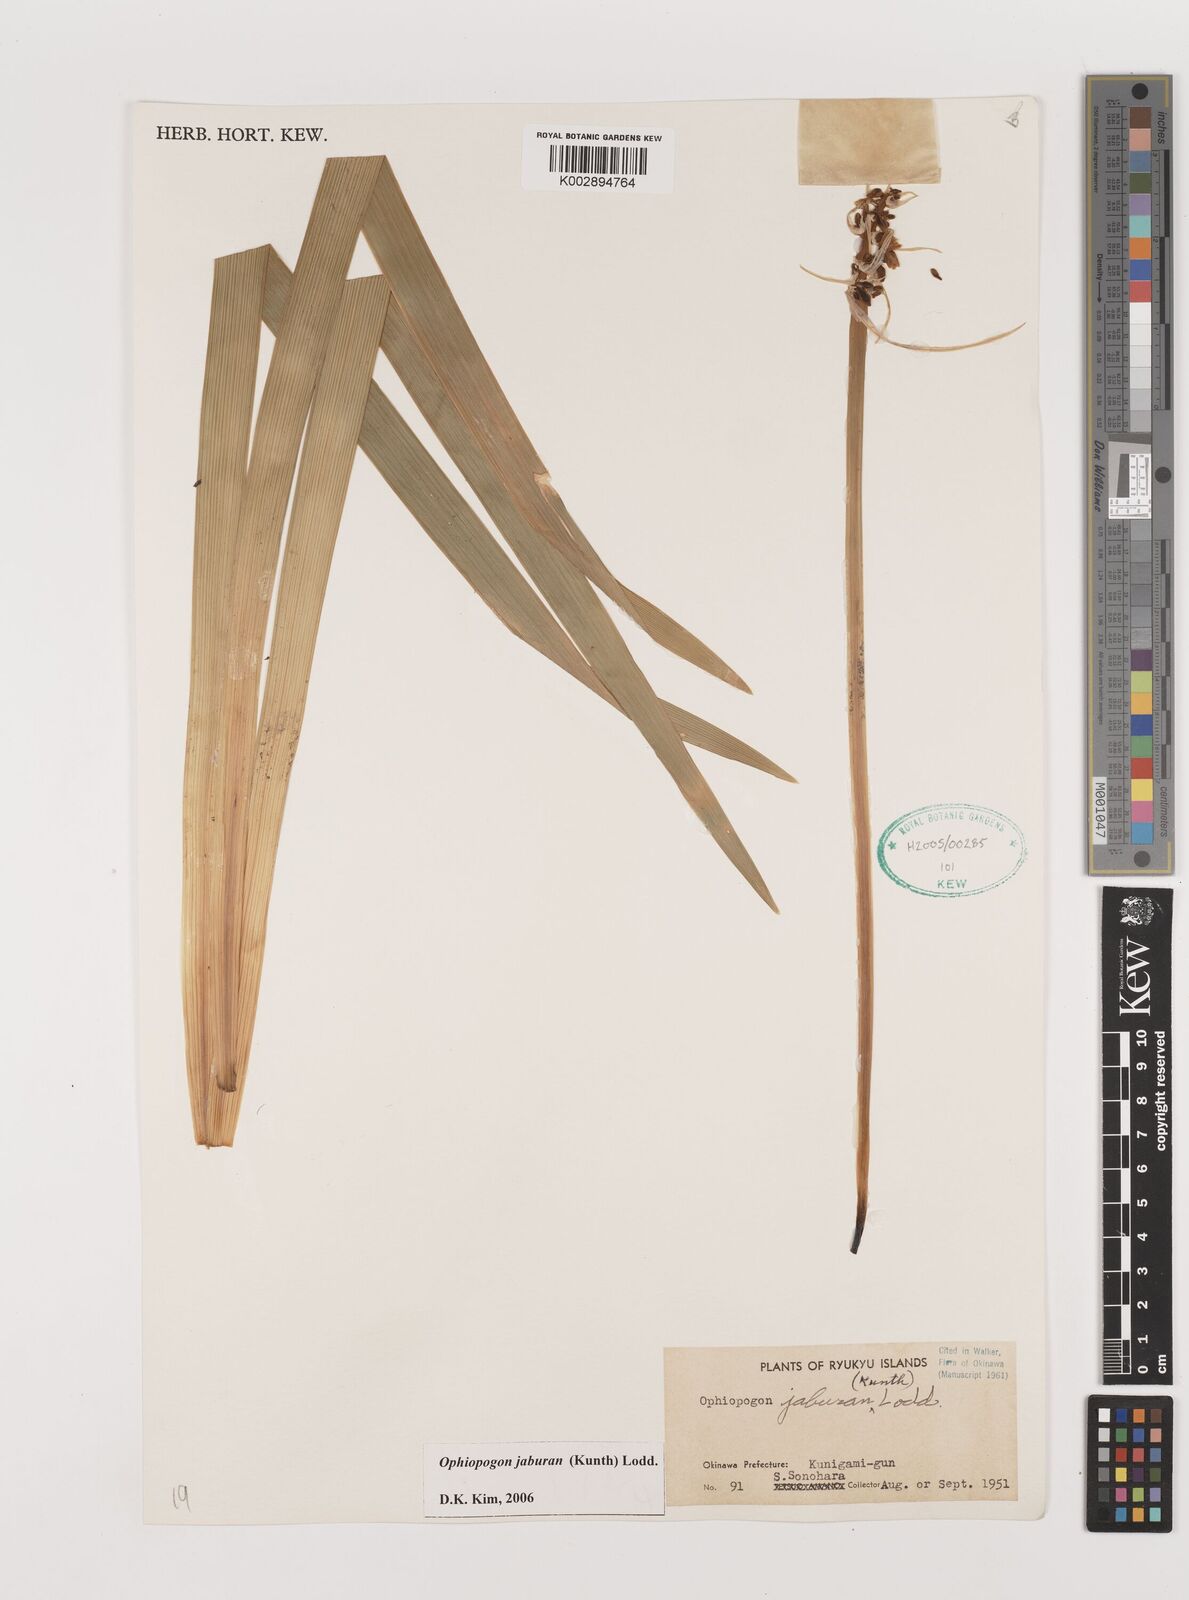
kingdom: Plantae
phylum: Tracheophyta
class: Liliopsida
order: Asparagales
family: Asparagaceae
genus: Ophiopogon
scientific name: Ophiopogon jaburan
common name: Lilyturf
